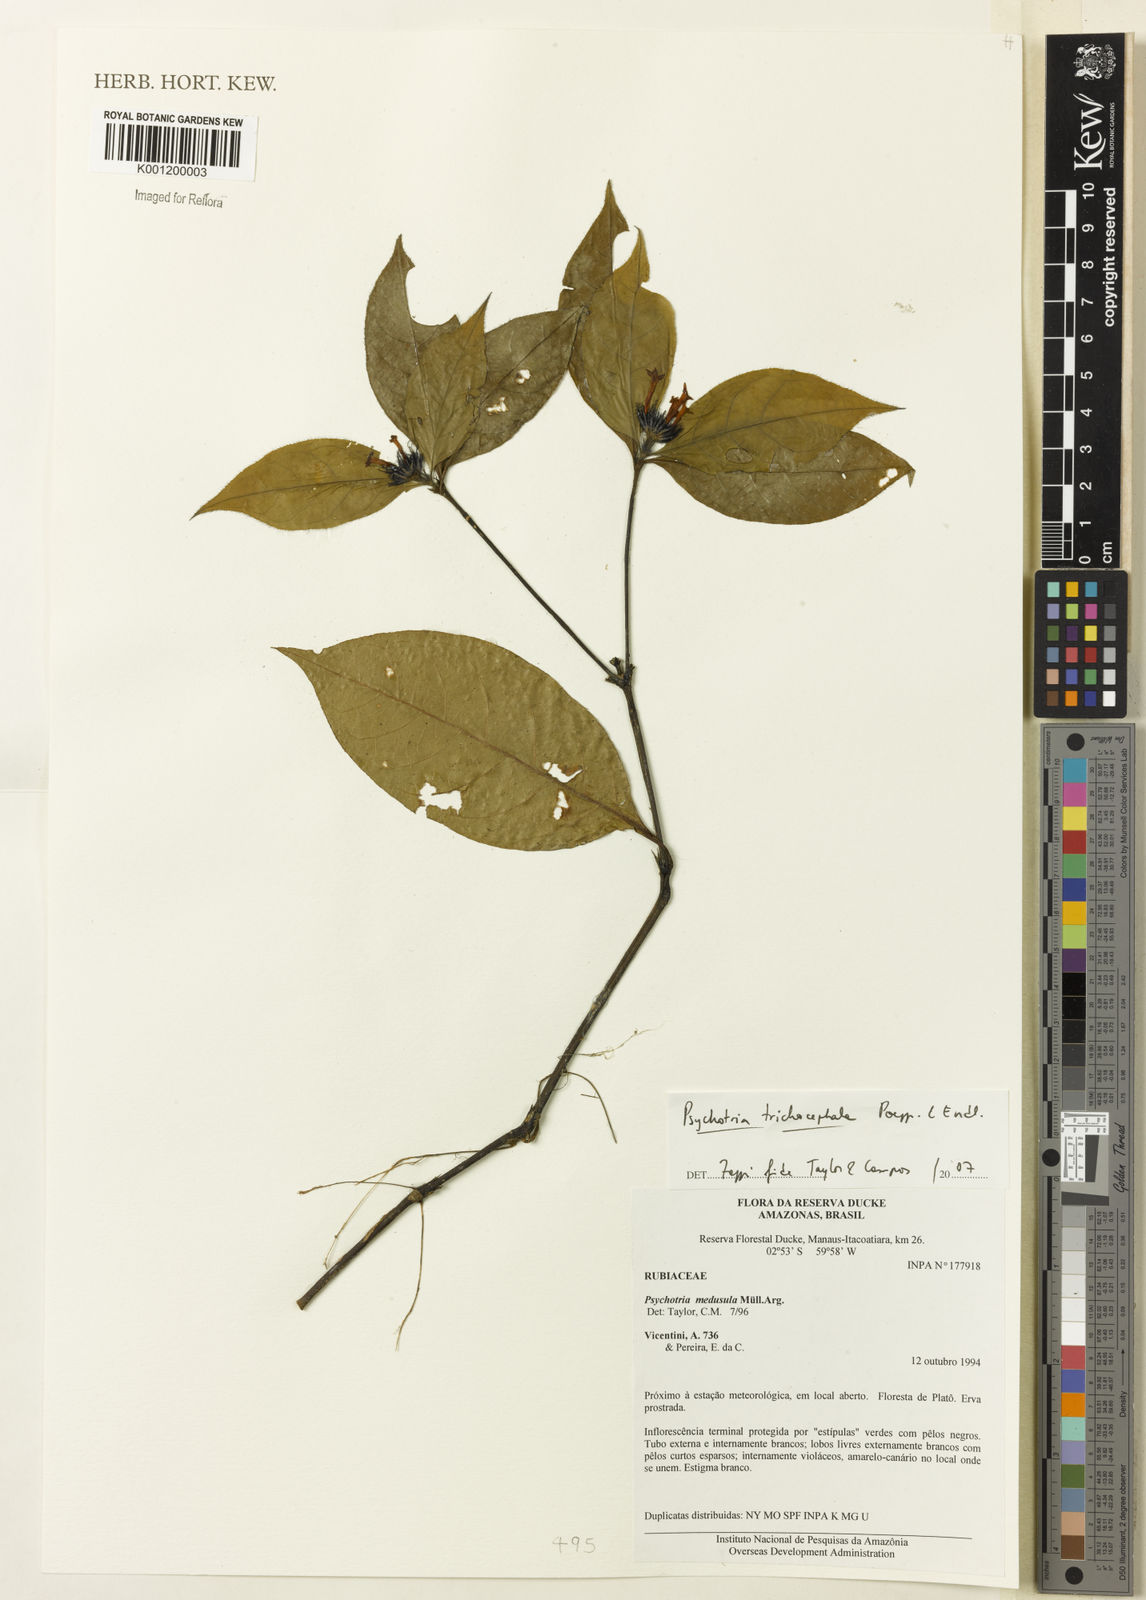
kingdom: Plantae
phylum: Tracheophyta
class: Magnoliopsida
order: Gentianales
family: Rubiaceae
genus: Psychotria
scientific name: Psychotria
